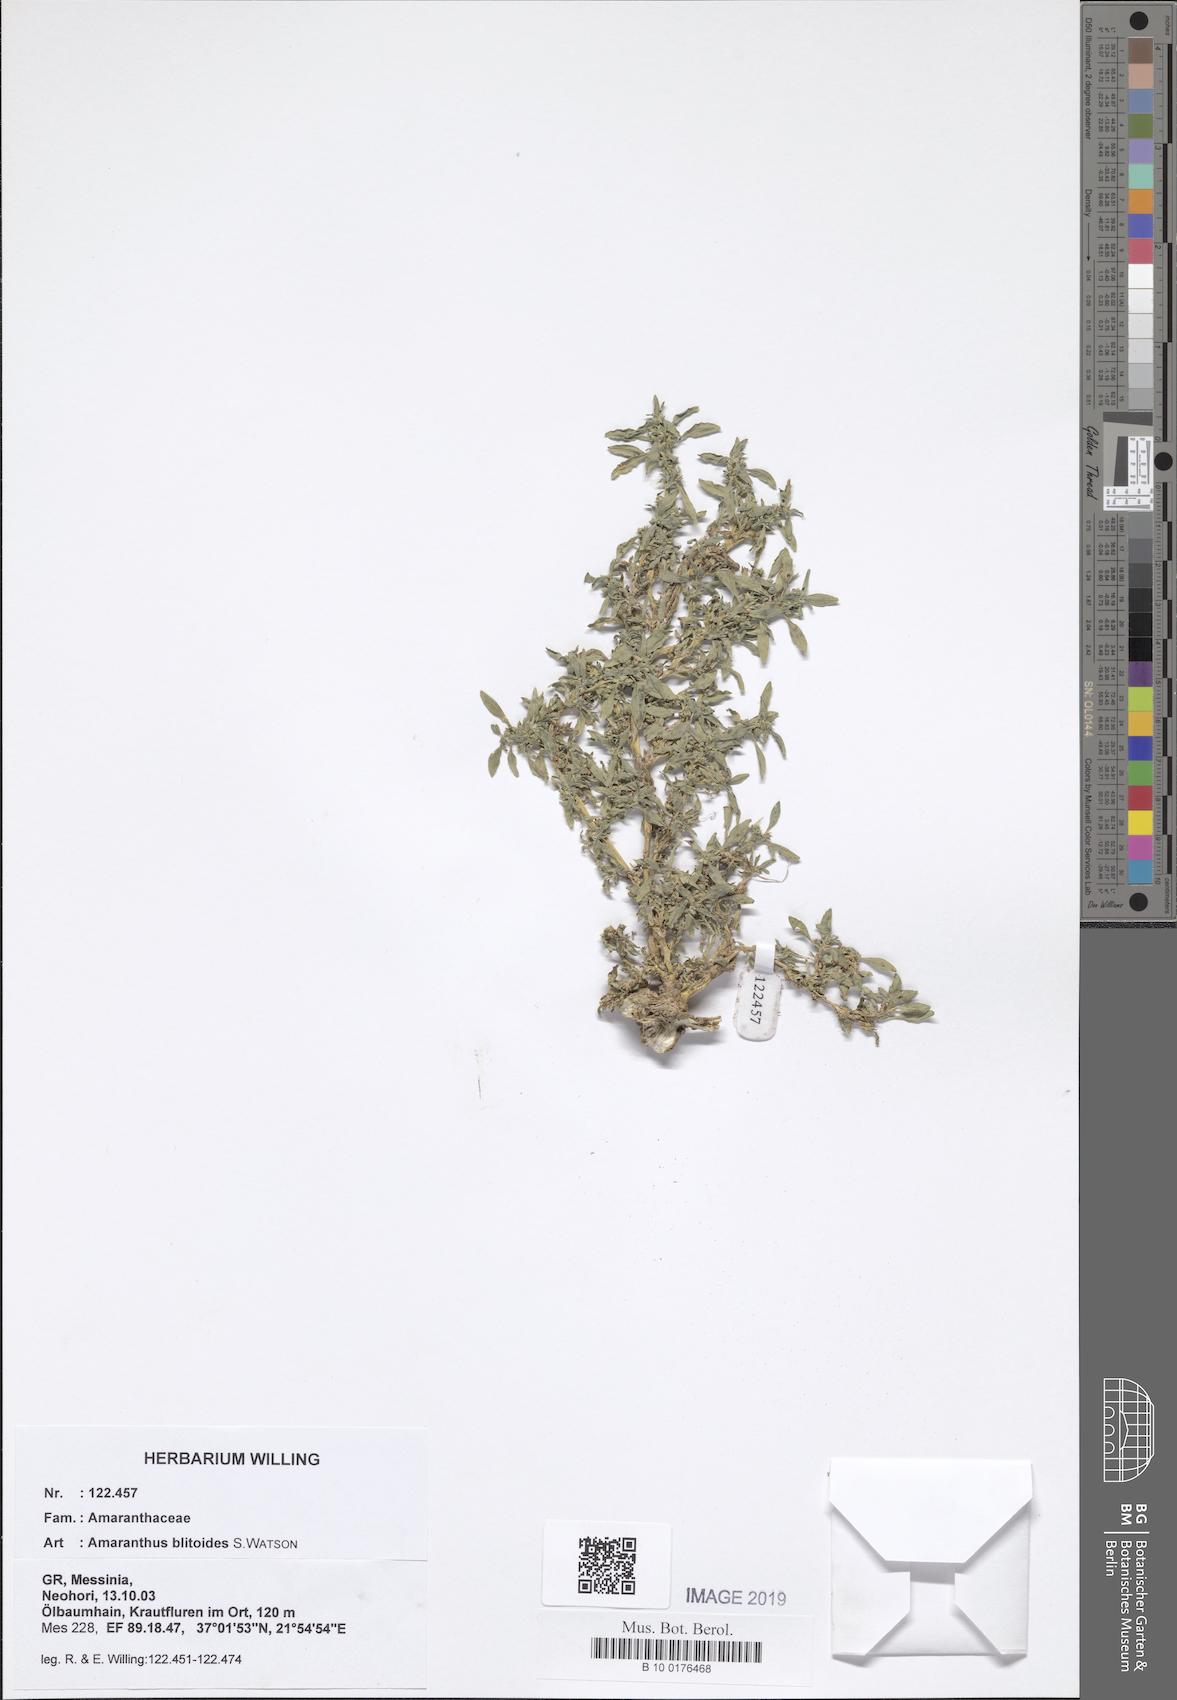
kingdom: Plantae
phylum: Tracheophyta
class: Magnoliopsida
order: Caryophyllales
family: Amaranthaceae
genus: Amaranthus
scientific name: Amaranthus blitoides
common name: Prostrate pigweed
